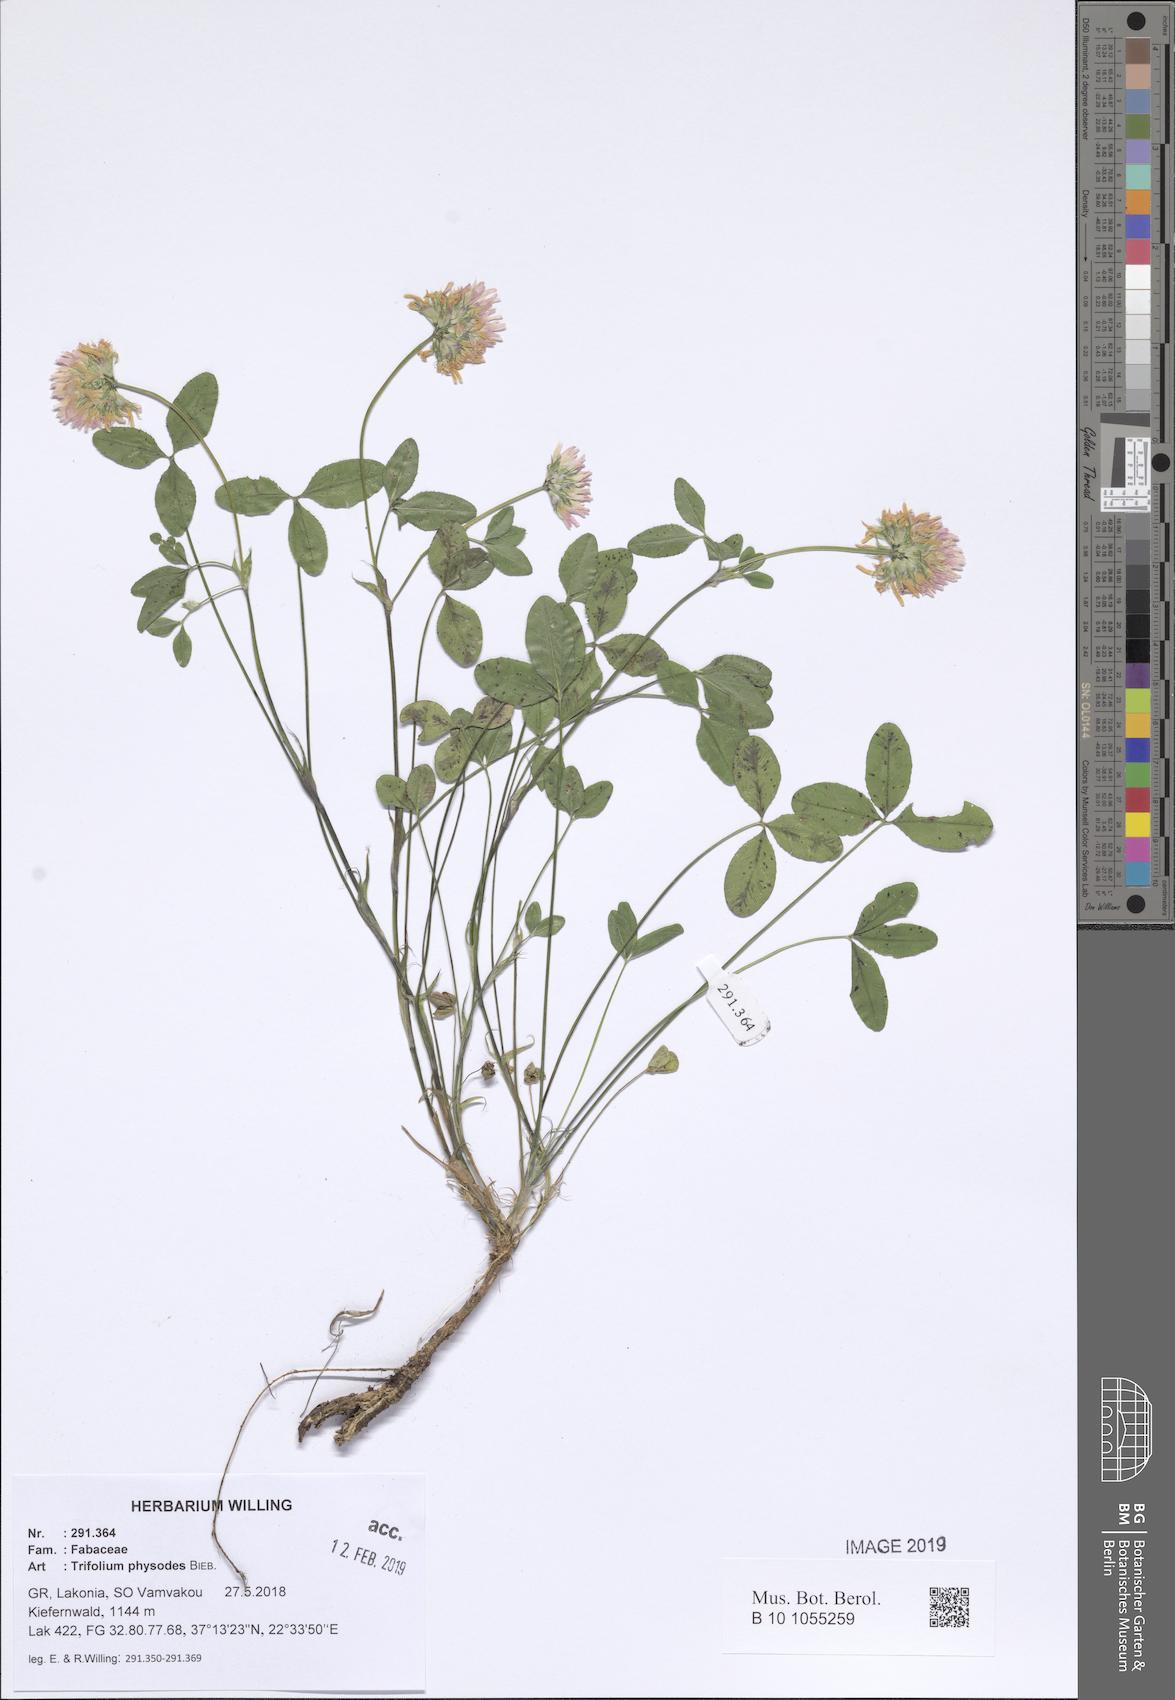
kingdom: Plantae
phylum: Tracheophyta
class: Magnoliopsida
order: Fabales
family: Fabaceae
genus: Trifolium
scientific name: Trifolium physodes
